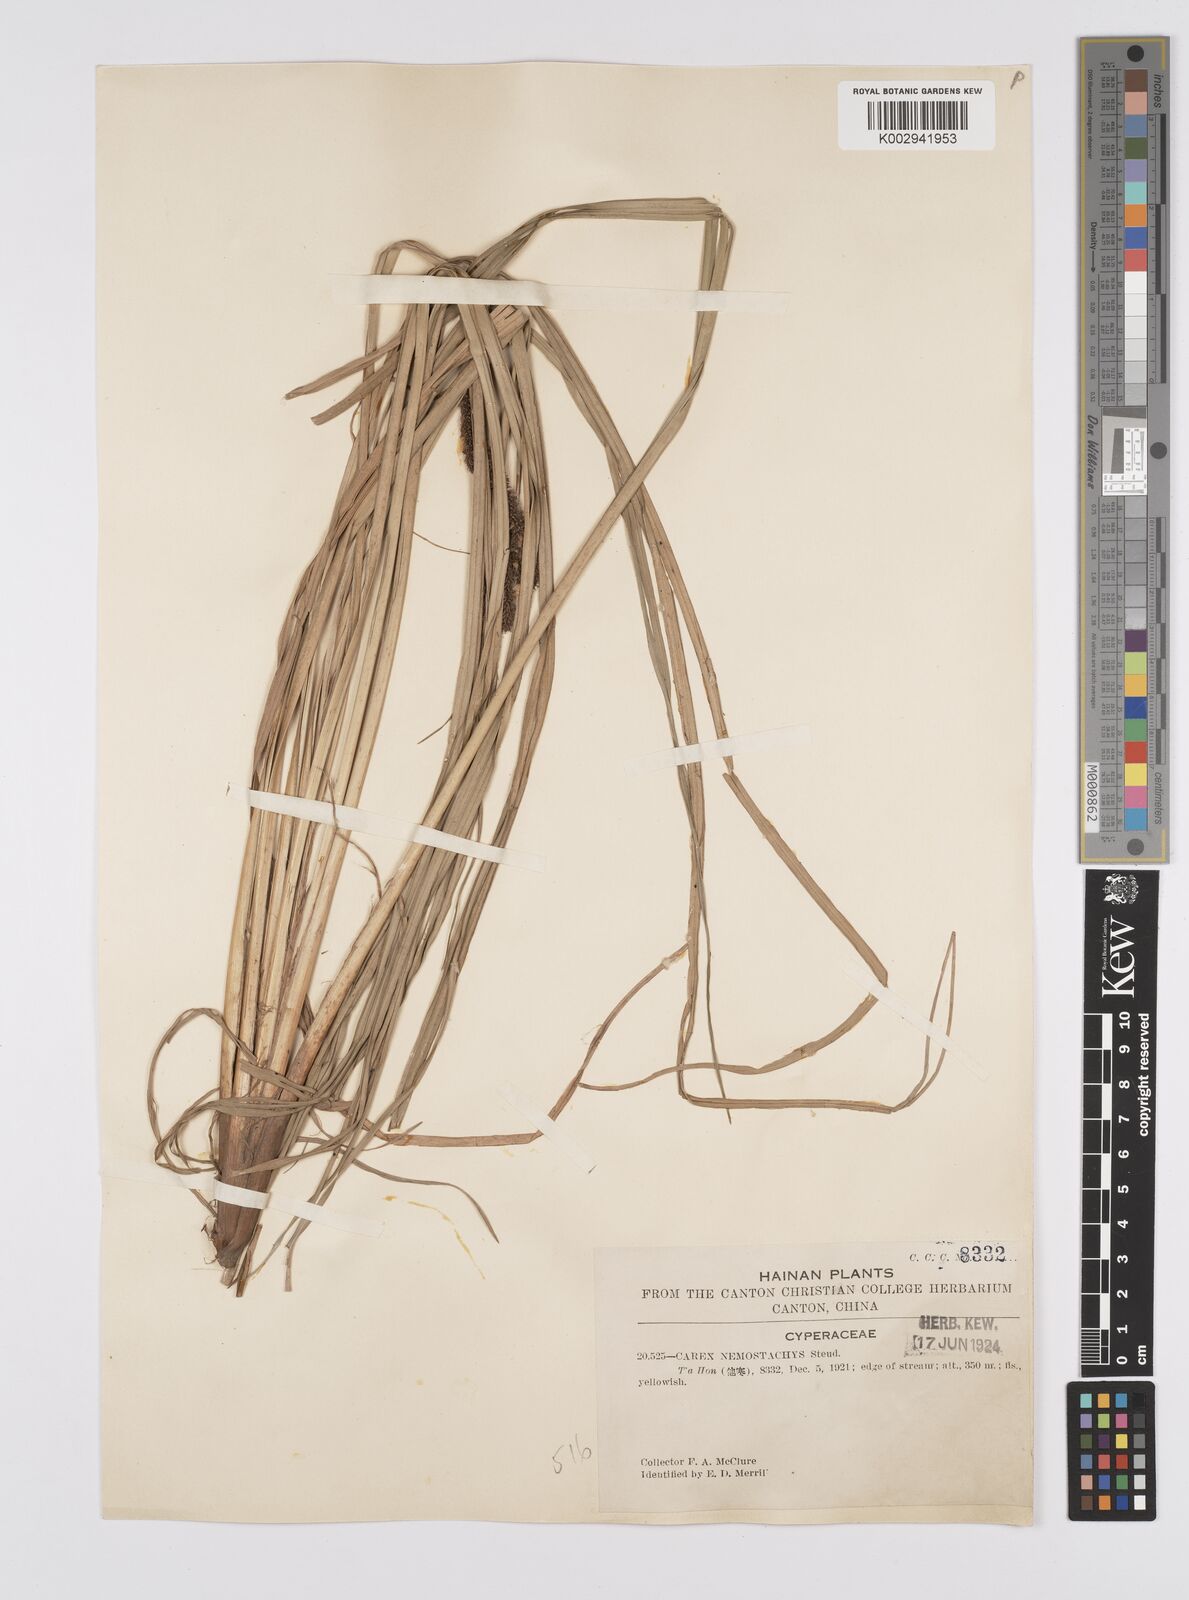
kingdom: Plantae
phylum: Tracheophyta
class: Liliopsida
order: Poales
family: Cyperaceae
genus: Carex
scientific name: Carex nemostachys
